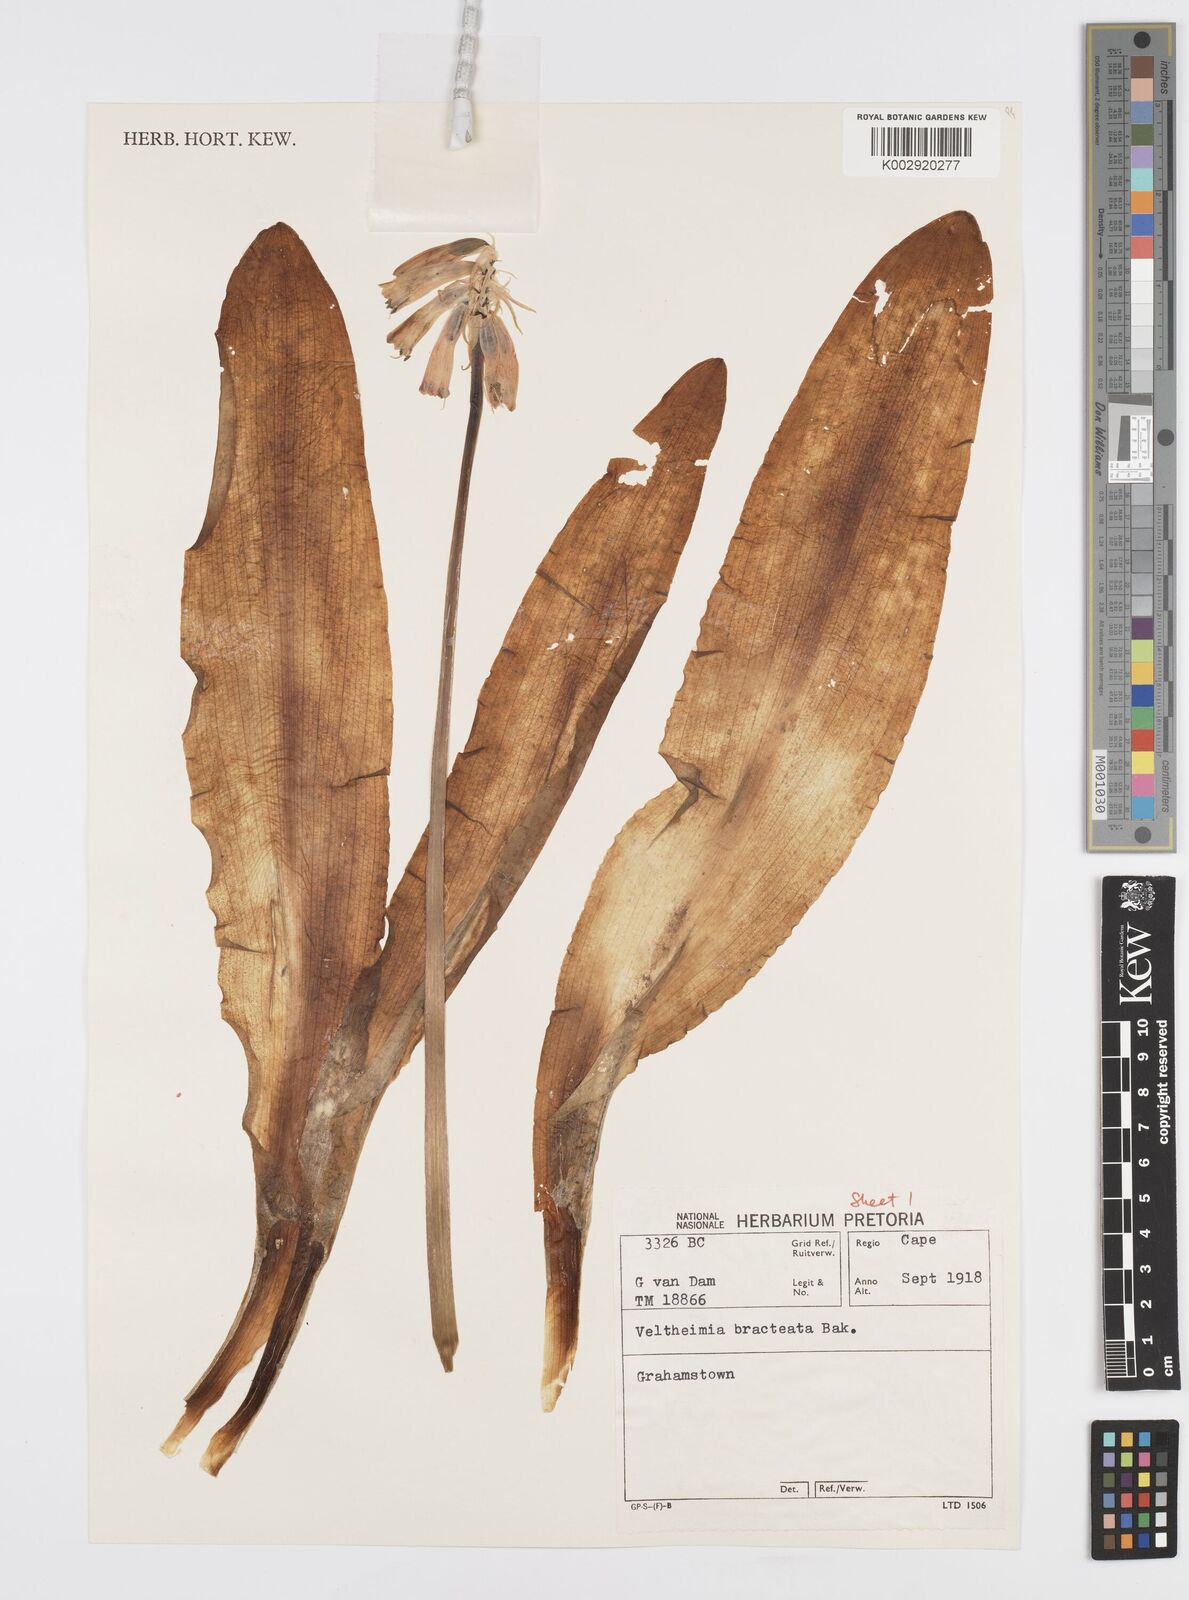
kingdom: Plantae
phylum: Tracheophyta
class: Liliopsida
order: Asparagales
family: Asparagaceae
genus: Veltheimia
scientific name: Veltheimia bracteata
